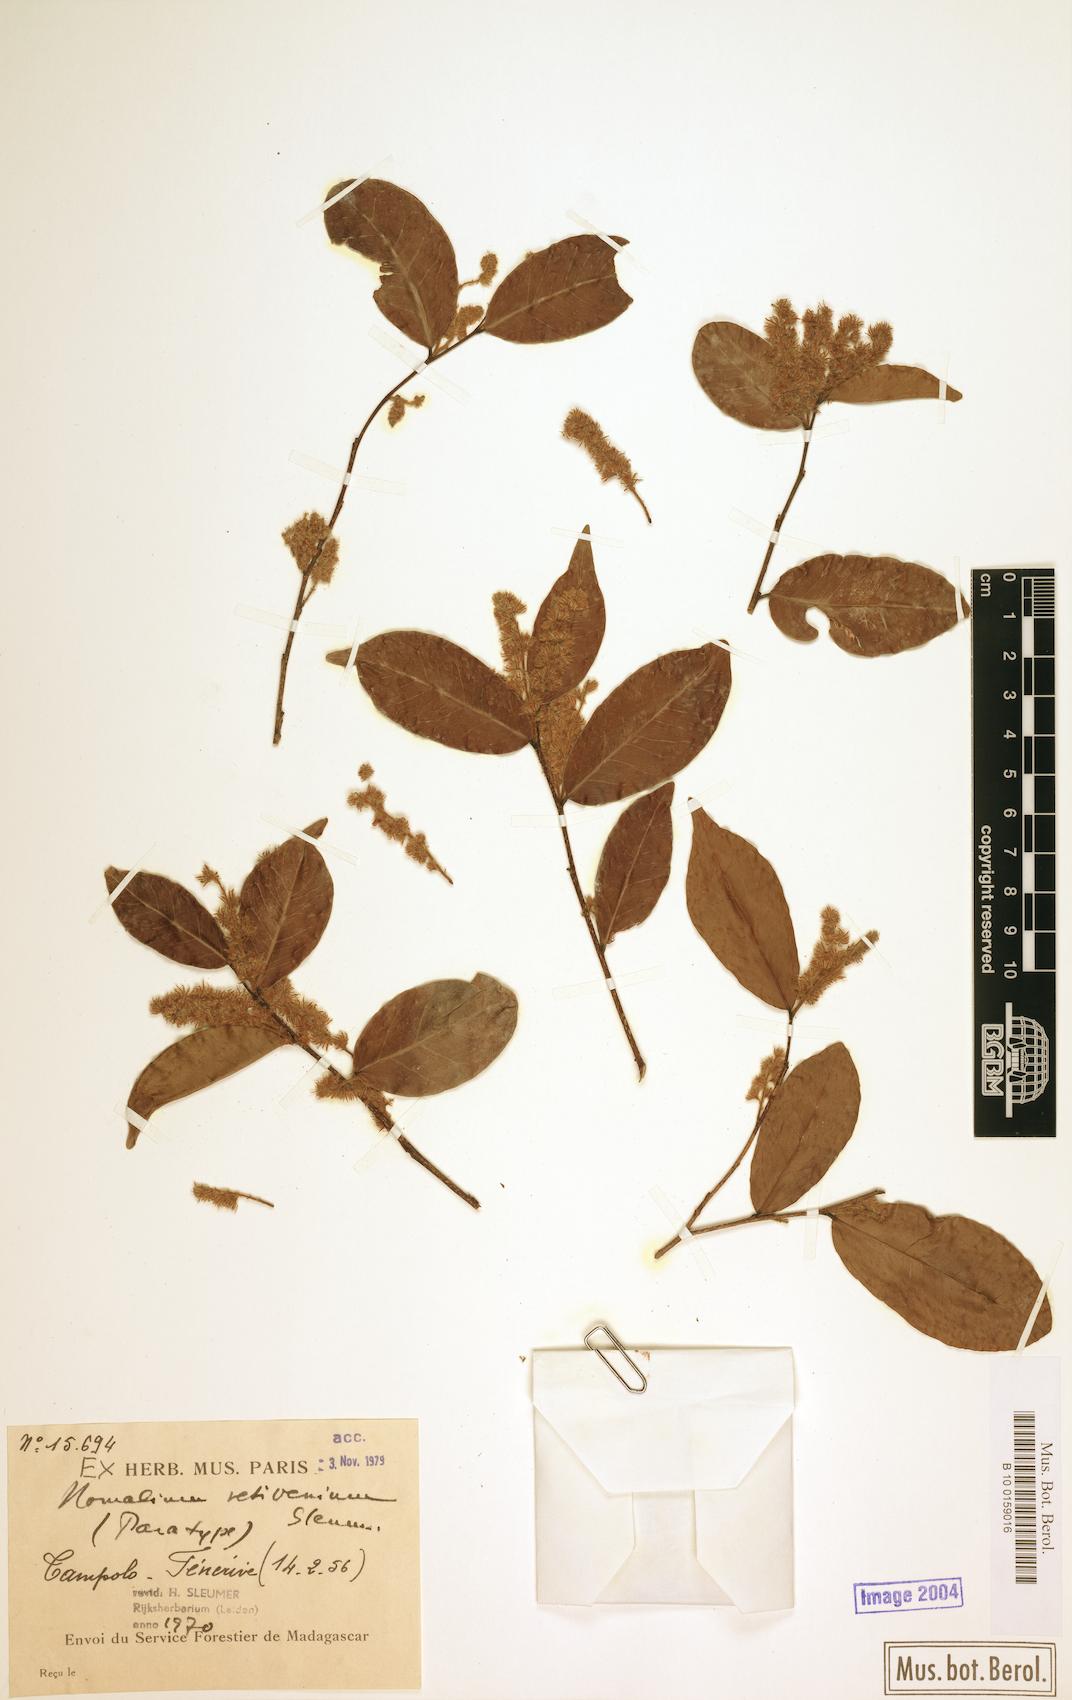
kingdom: Plantae
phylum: Tracheophyta
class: Magnoliopsida
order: Malpighiales
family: Salicaceae
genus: Homalium
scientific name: Homalium retivenium
